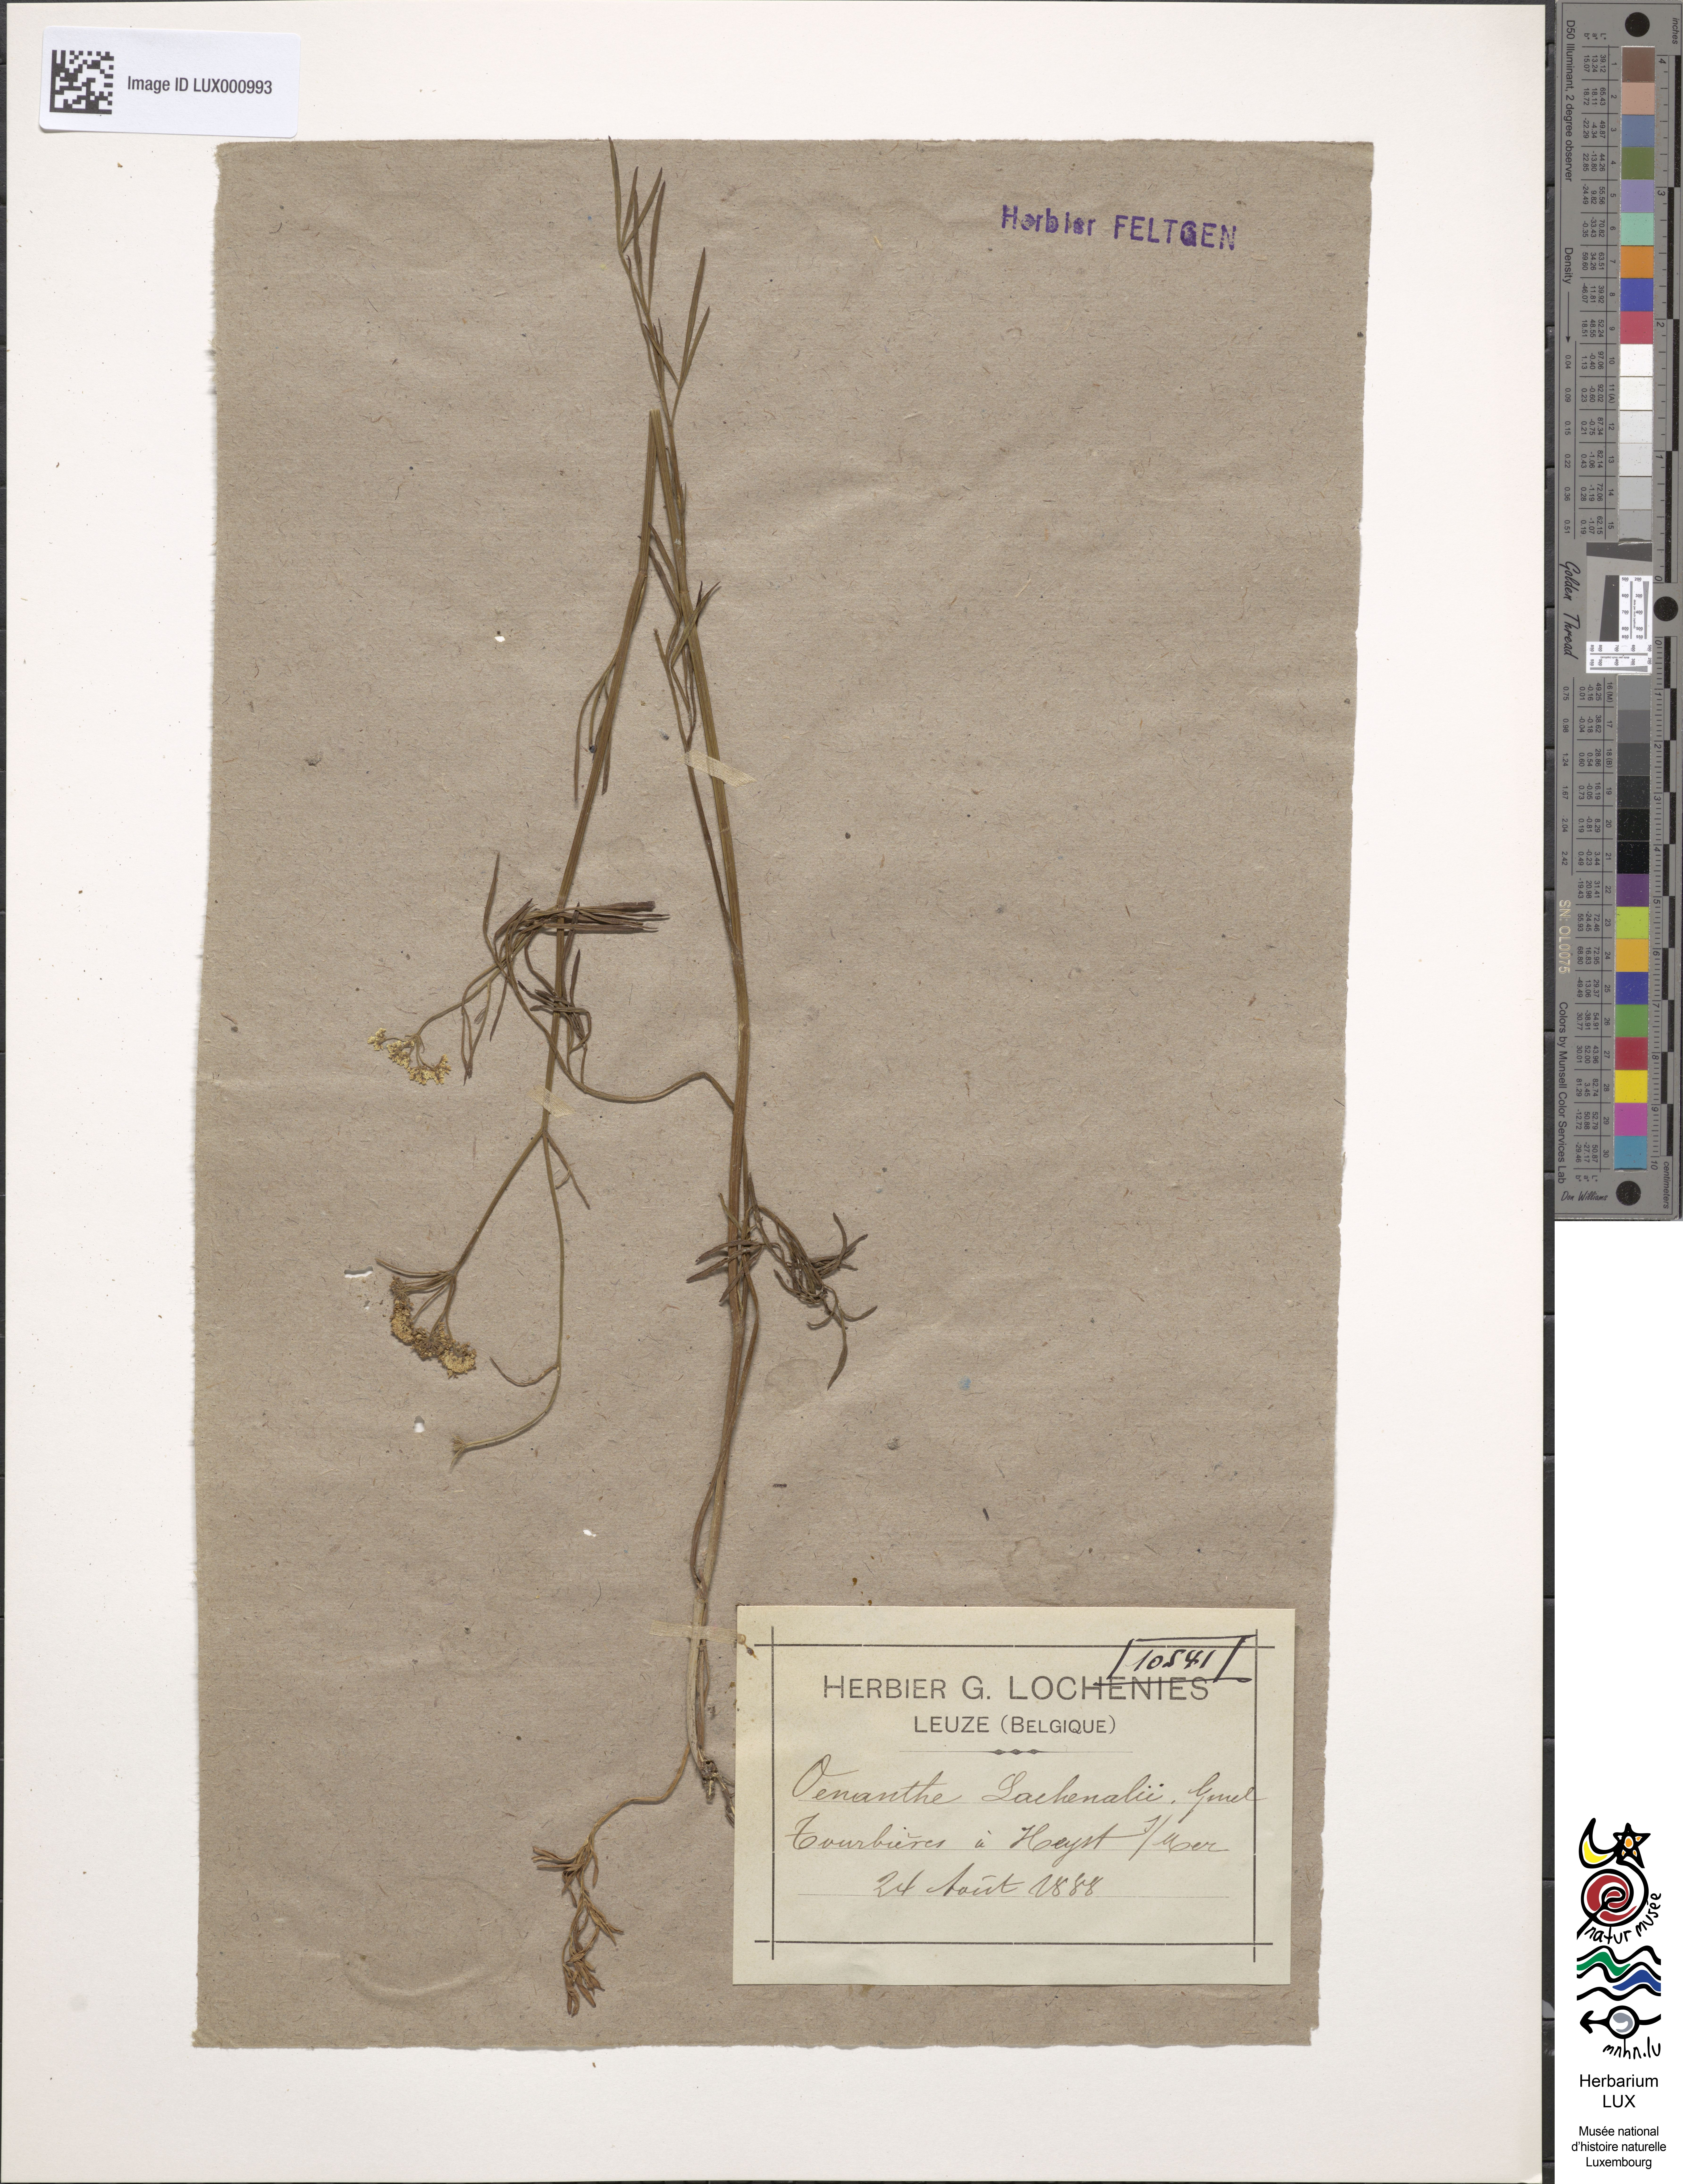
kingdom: Plantae
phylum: Tracheophyta
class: Magnoliopsida
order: Apiales
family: Apiaceae
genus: Oenanthe
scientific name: Oenanthe lachenalii
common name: Parsley water-dropwort
